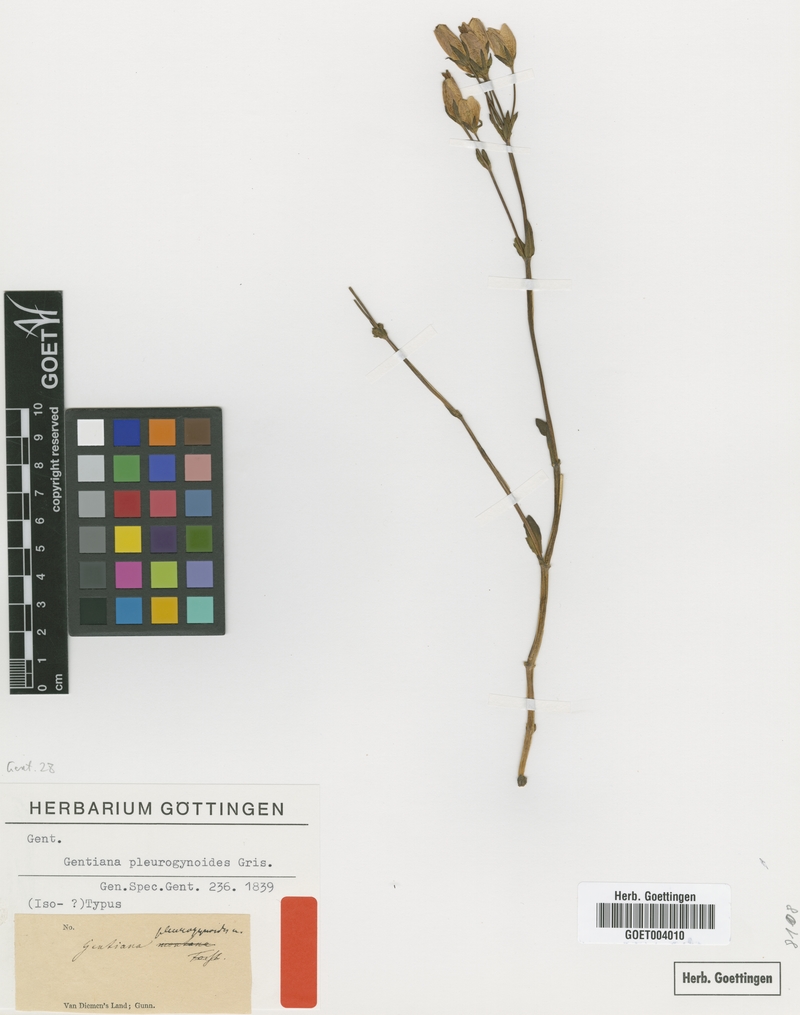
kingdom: Plantae
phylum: Tracheophyta
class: Magnoliopsida
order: Gentianales
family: Gentianaceae
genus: Gentianella
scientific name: Gentianella pleurogynoides
